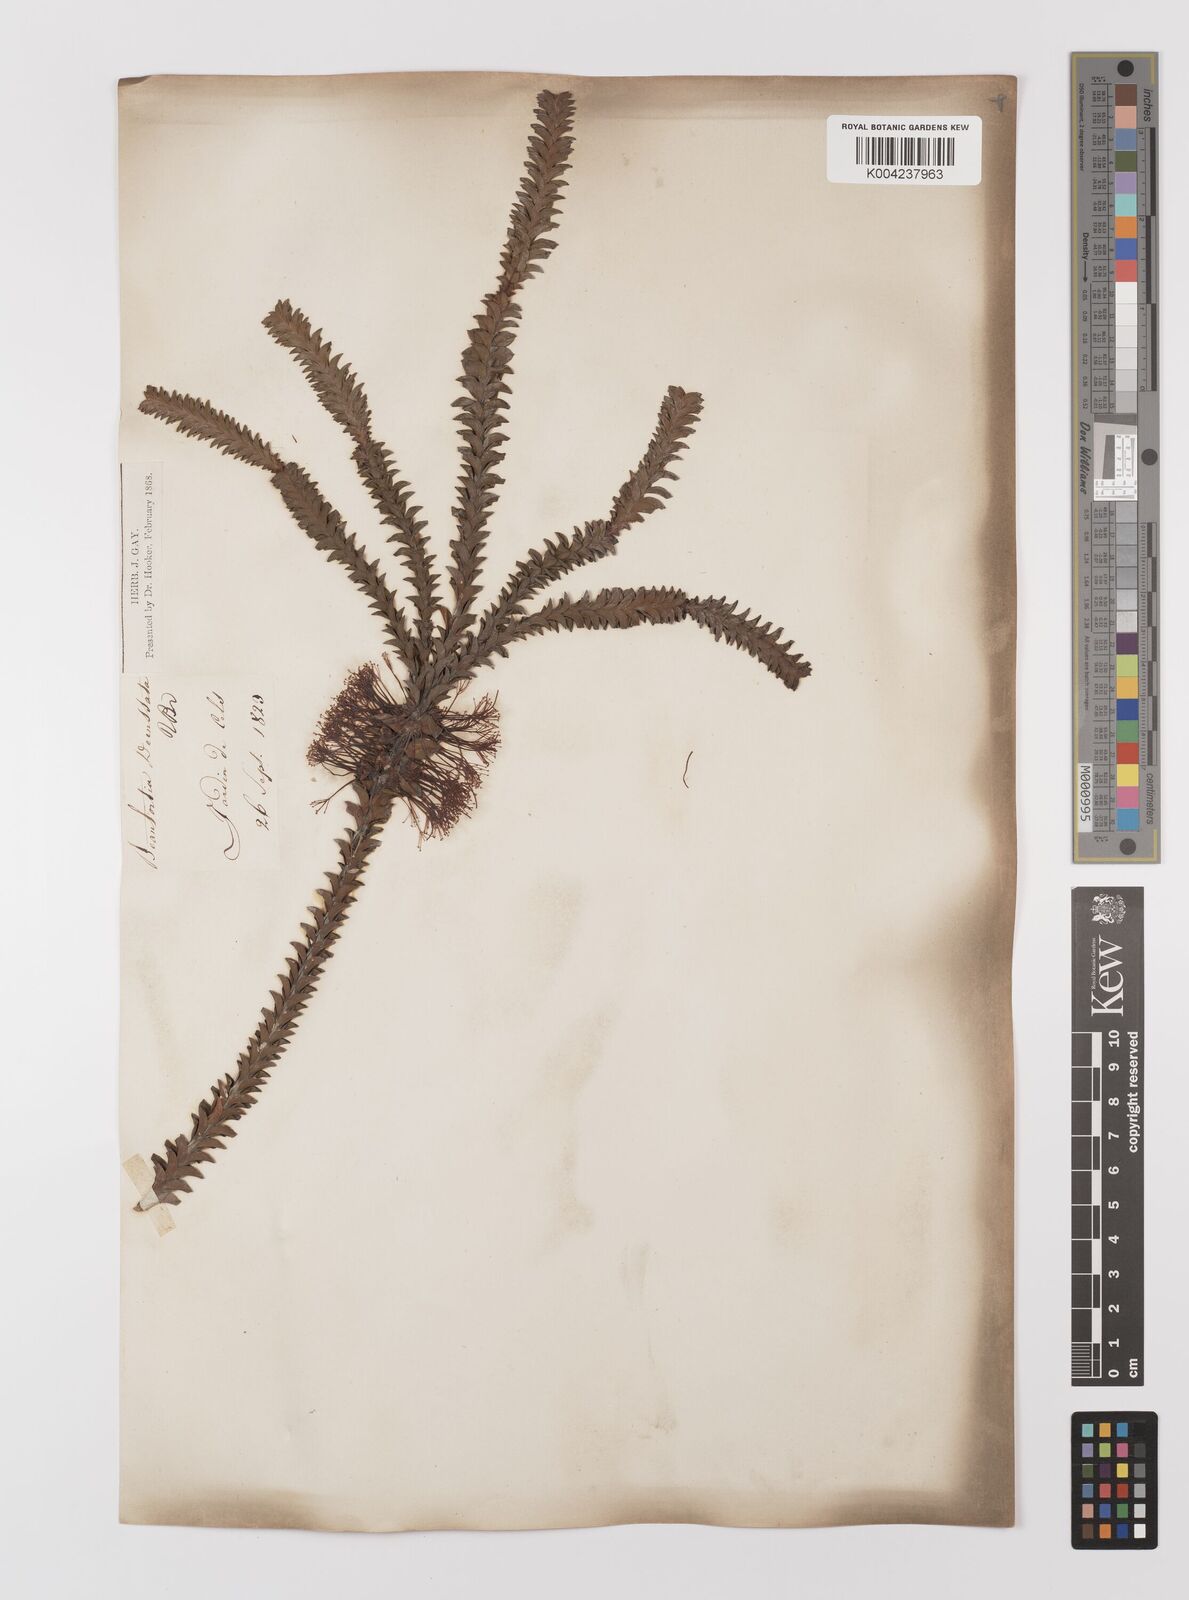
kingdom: Plantae
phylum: Tracheophyta
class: Magnoliopsida
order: Myrtales
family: Myrtaceae
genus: Melaleuca
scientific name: Melaleuca transversa
